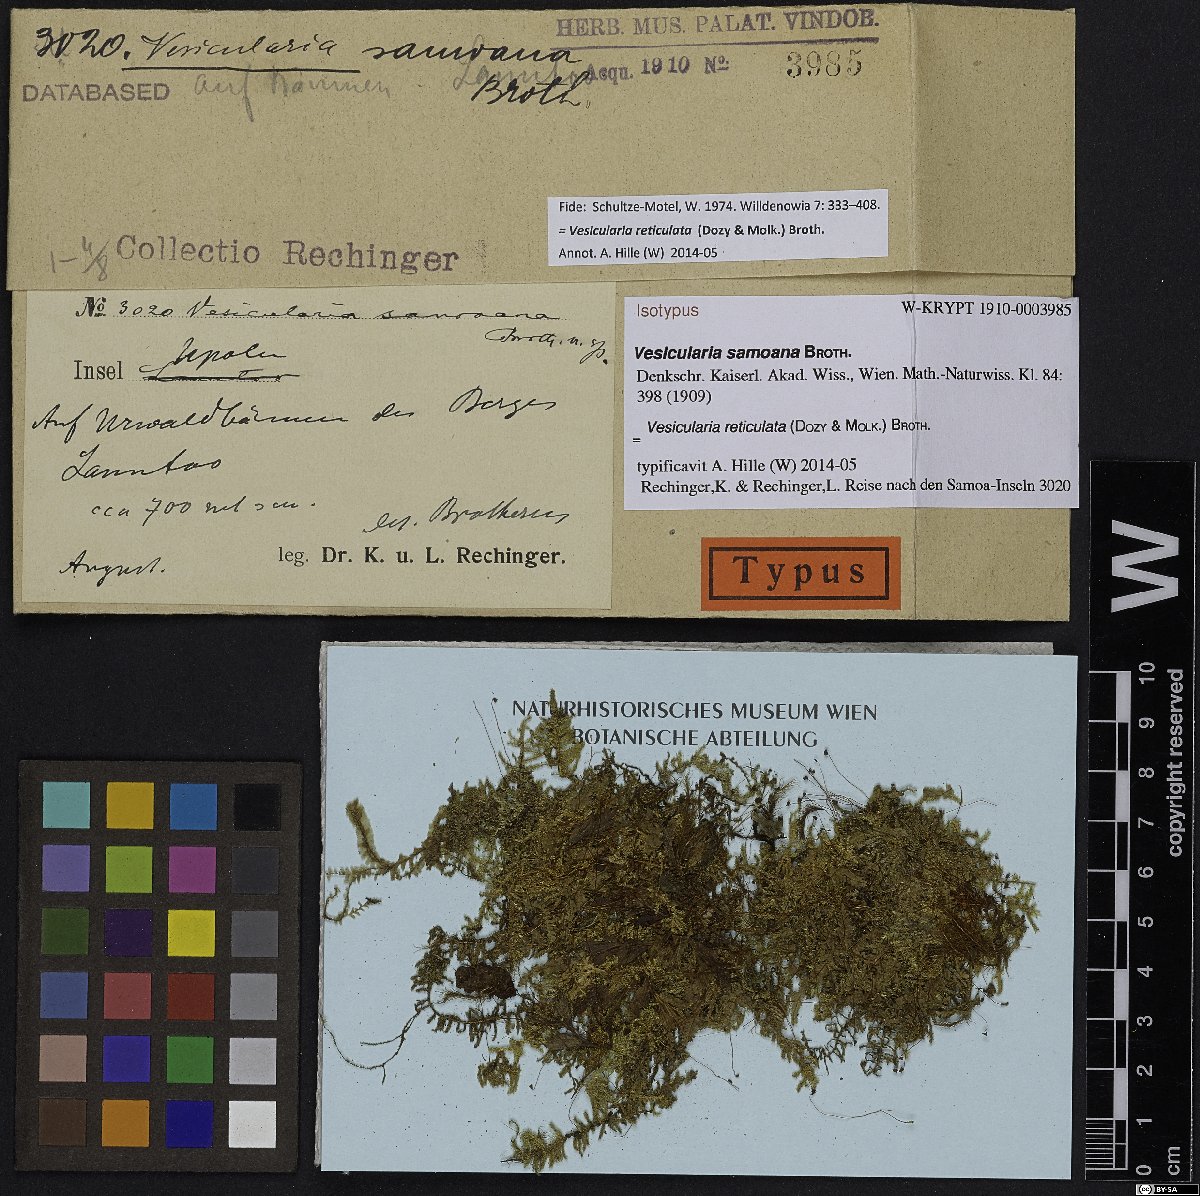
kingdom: Plantae
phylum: Bryophyta
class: Bryopsida
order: Hypnales
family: Hypnaceae
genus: Vesicularia
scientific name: Vesicularia reticulata
